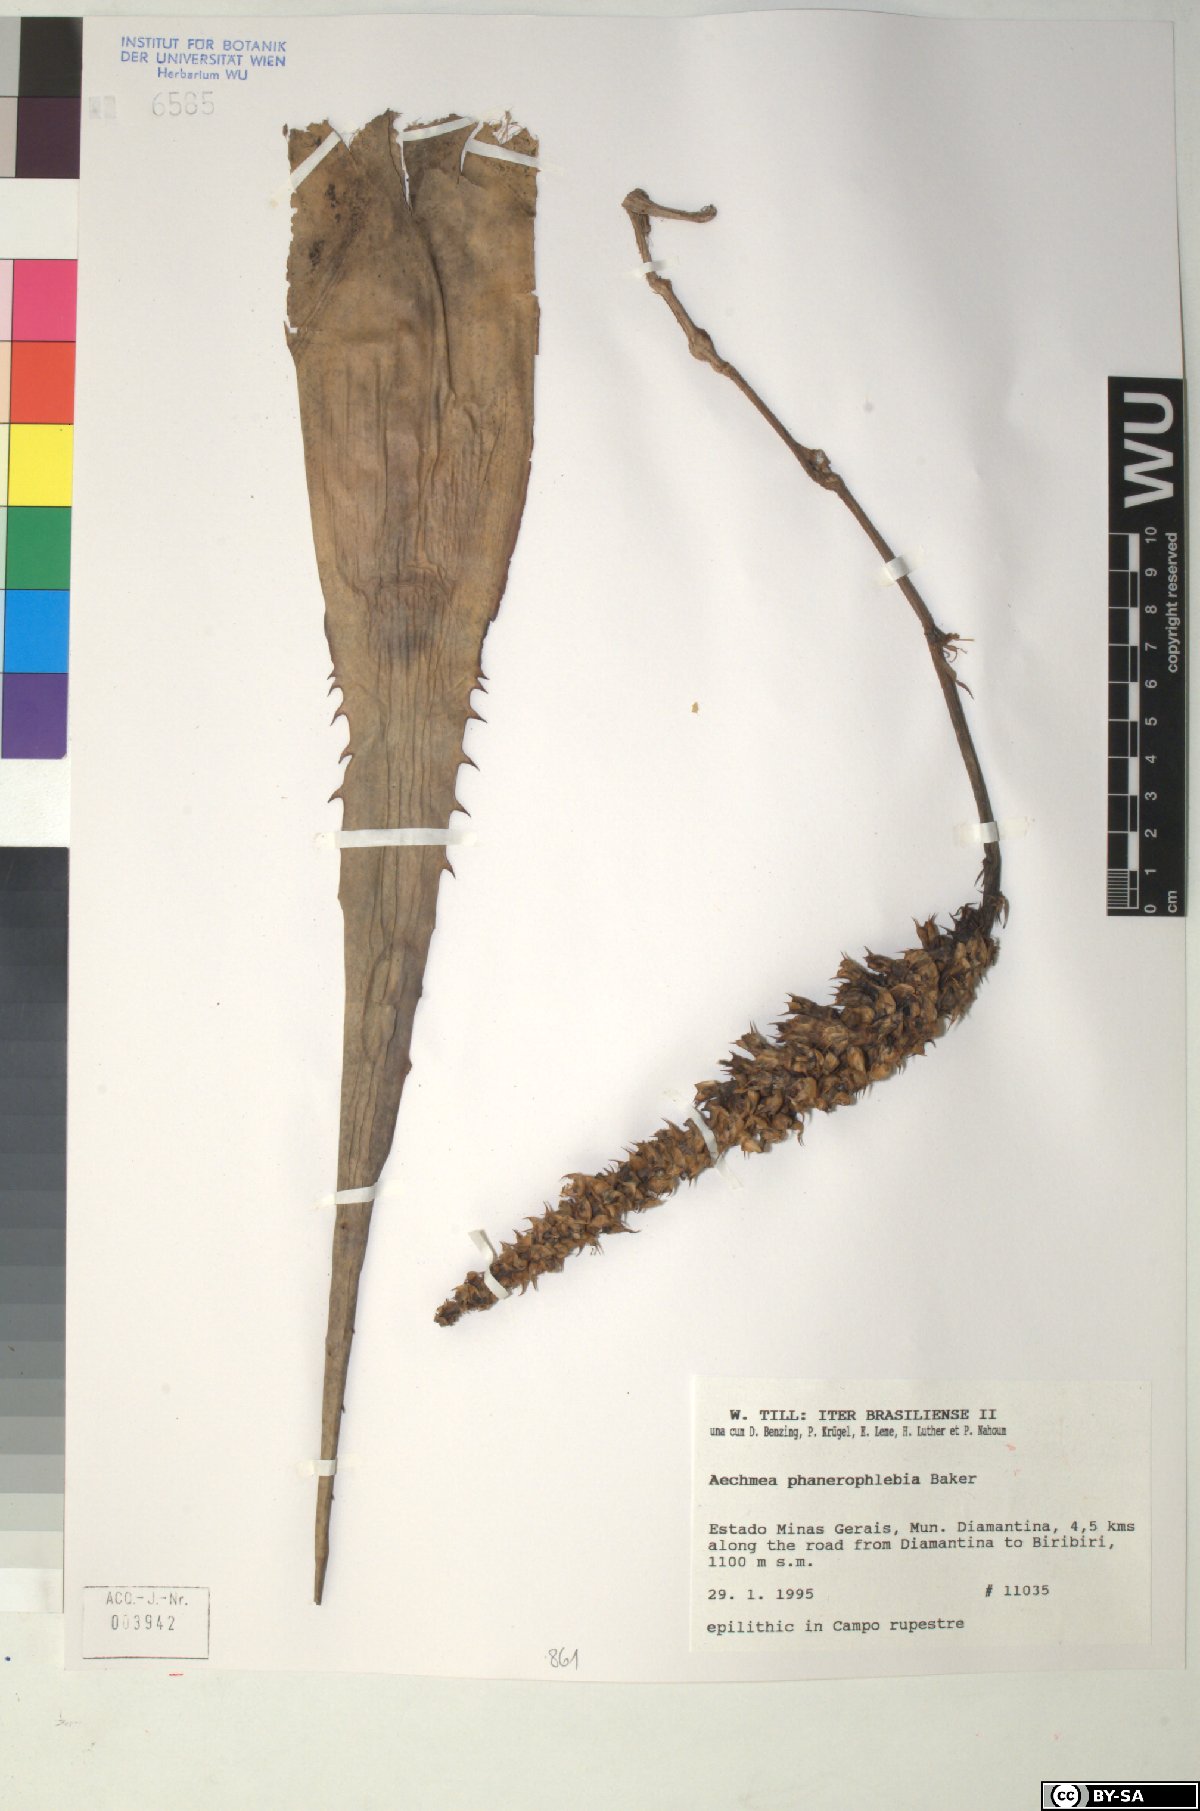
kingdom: Plantae
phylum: Tracheophyta
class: Liliopsida
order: Poales
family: Bromeliaceae
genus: Aechmea
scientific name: Aechmea phanerophlebia
